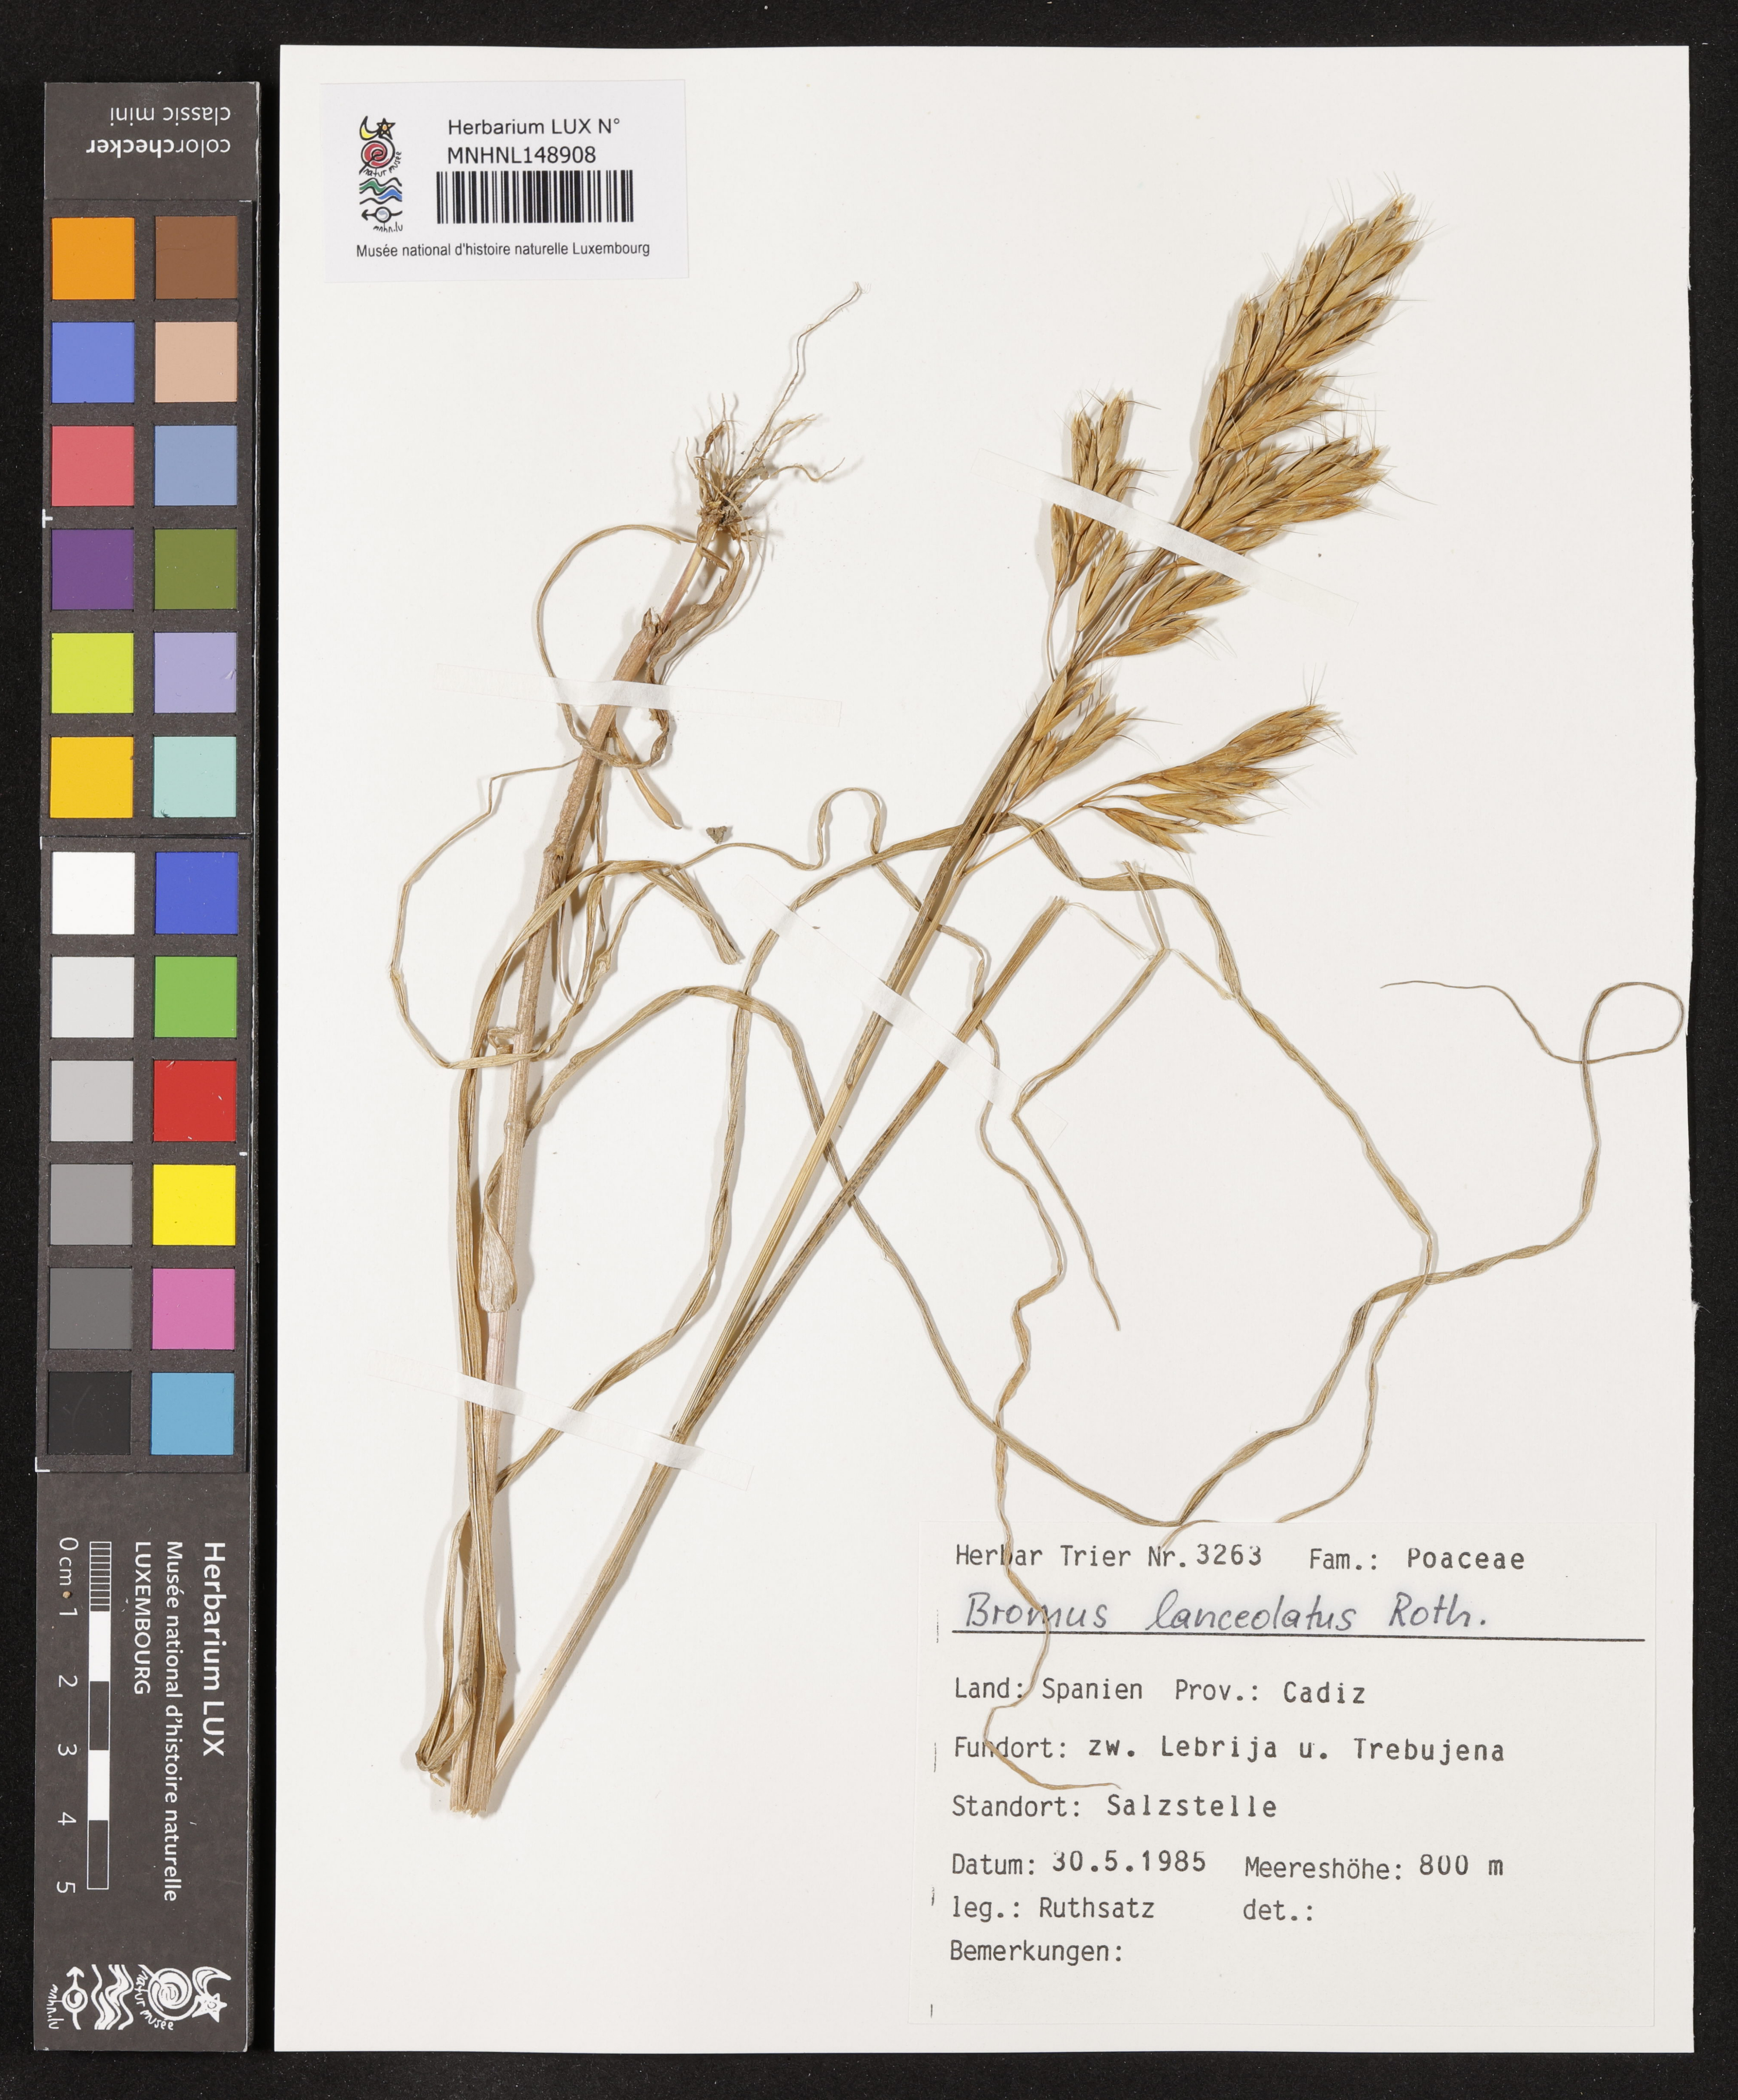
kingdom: Plantae
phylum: Tracheophyta
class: Liliopsida
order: Poales
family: Poaceae
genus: Bromus
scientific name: Bromus lanceolatus
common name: Mediterranean brome
